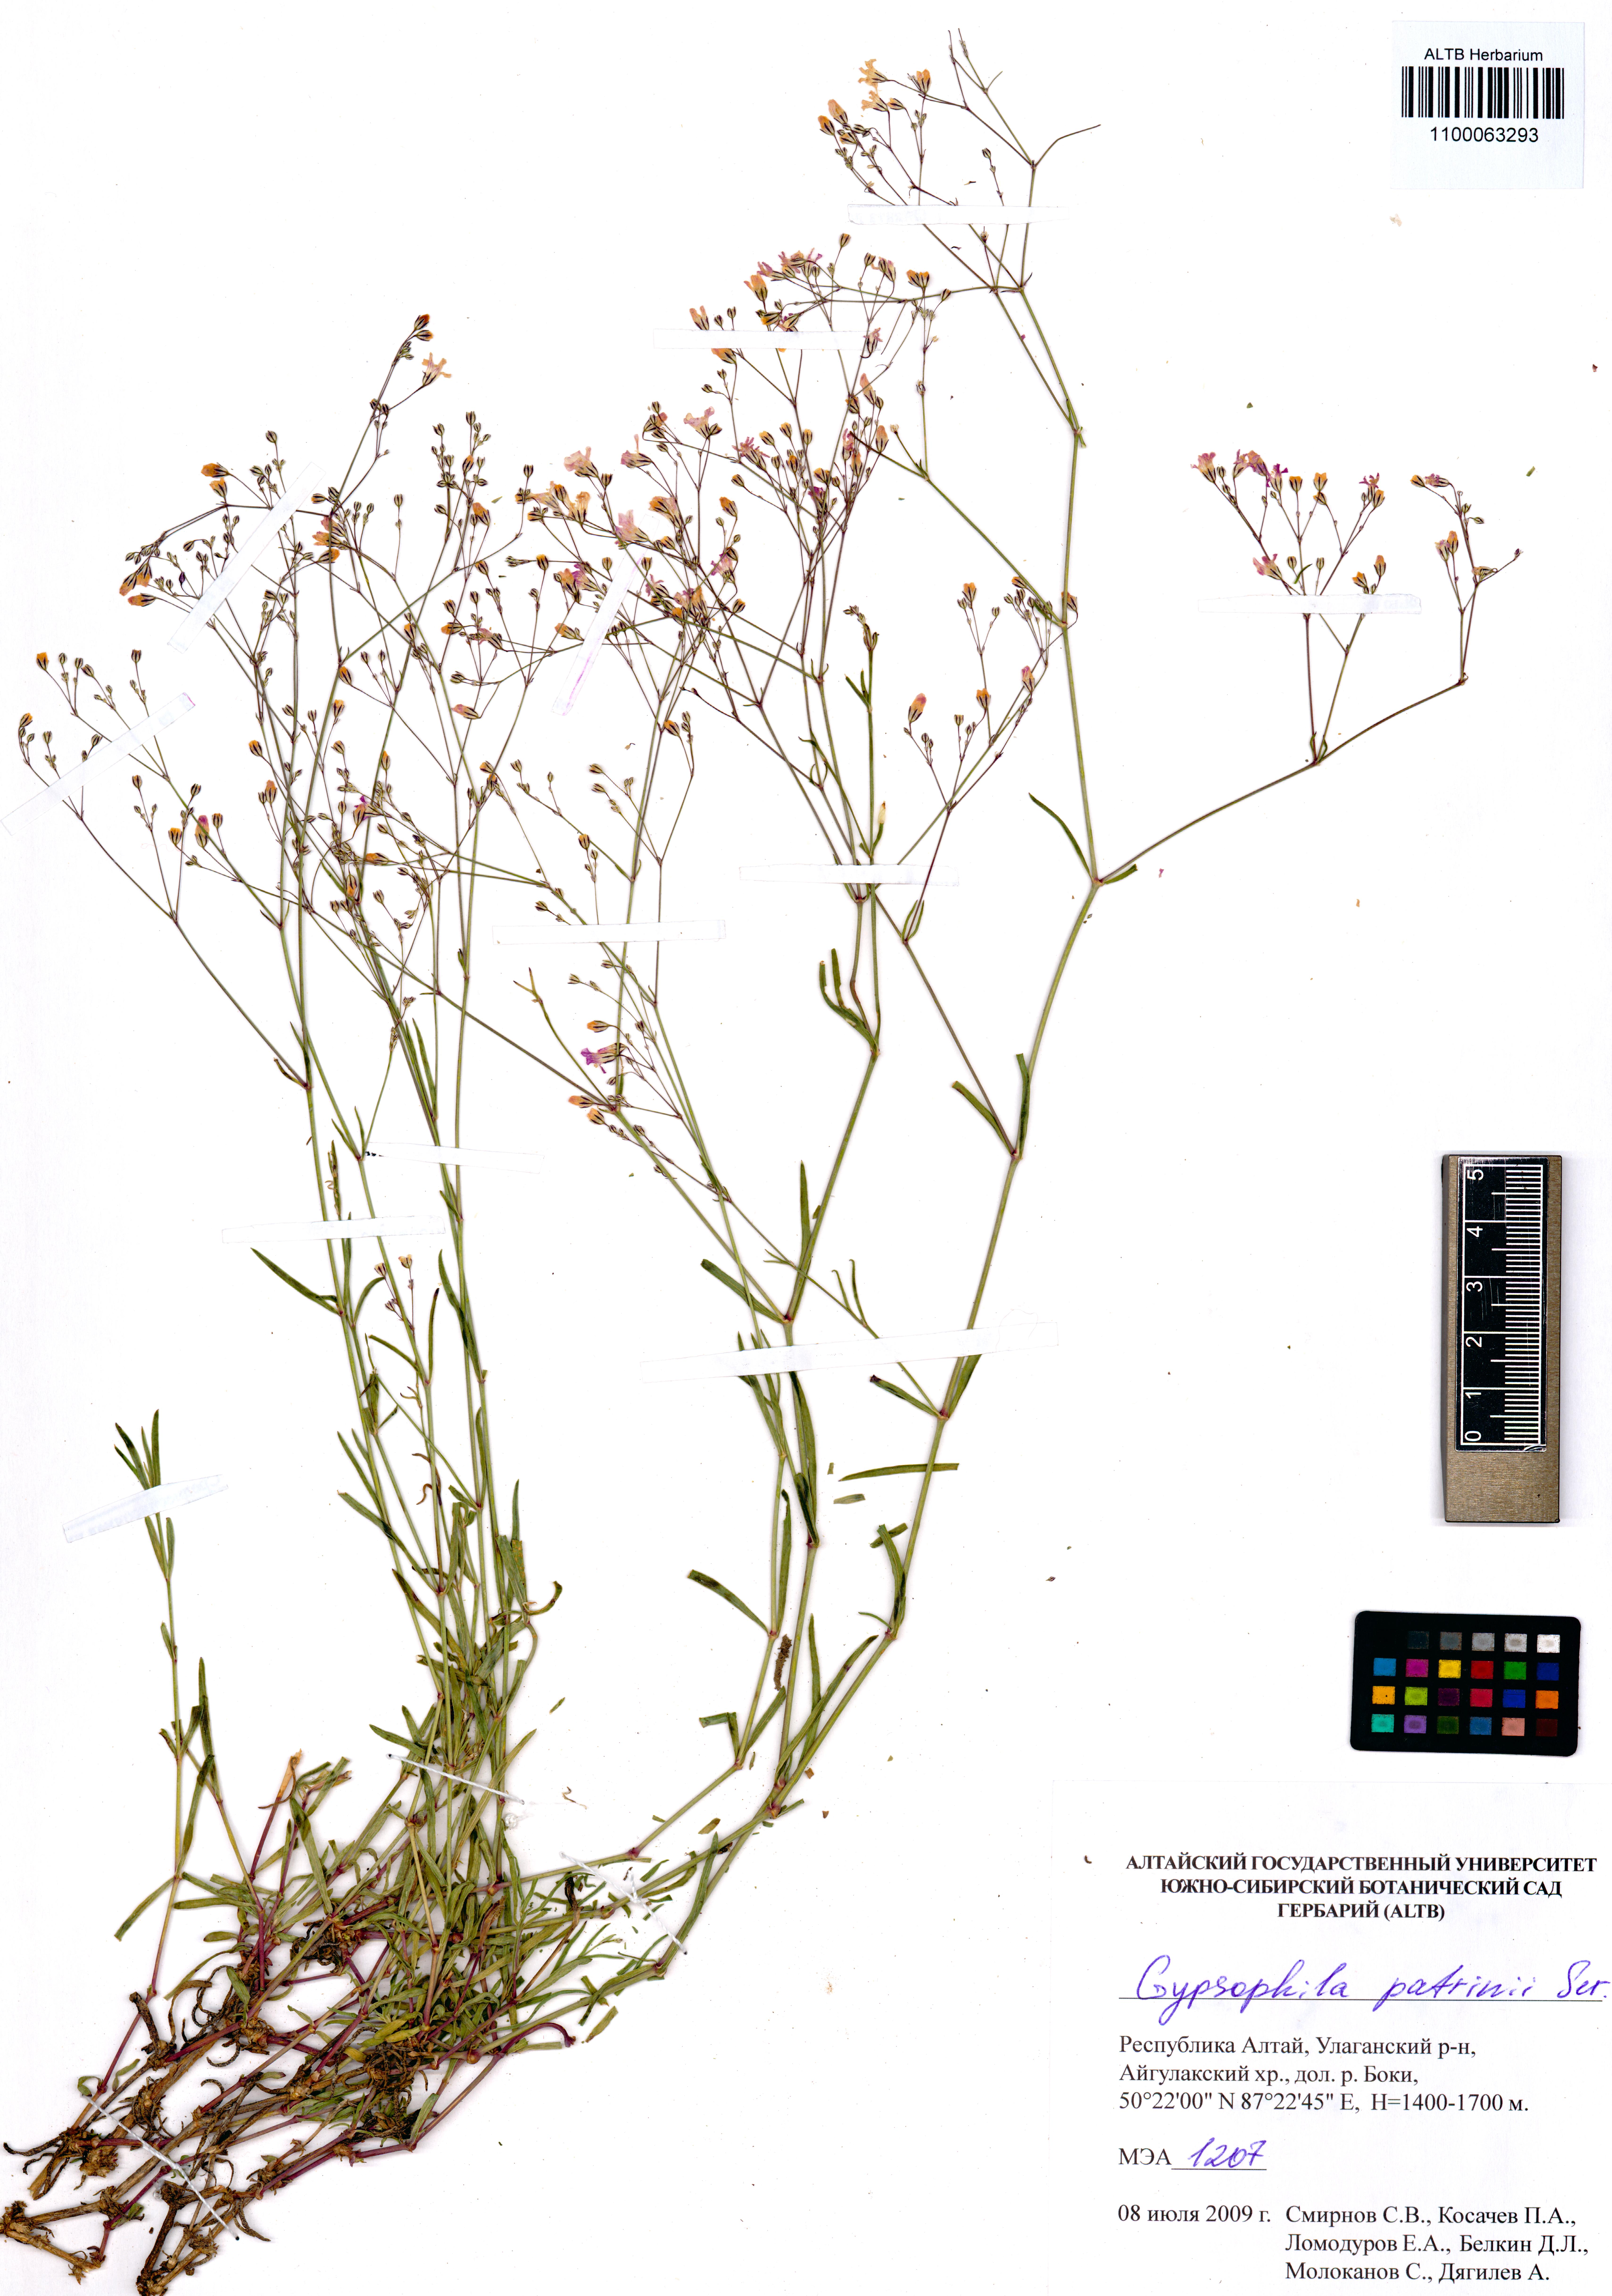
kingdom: Plantae
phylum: Tracheophyta
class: Magnoliopsida
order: Caryophyllales
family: Caryophyllaceae
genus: Gypsophila
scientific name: Gypsophila patrinii
